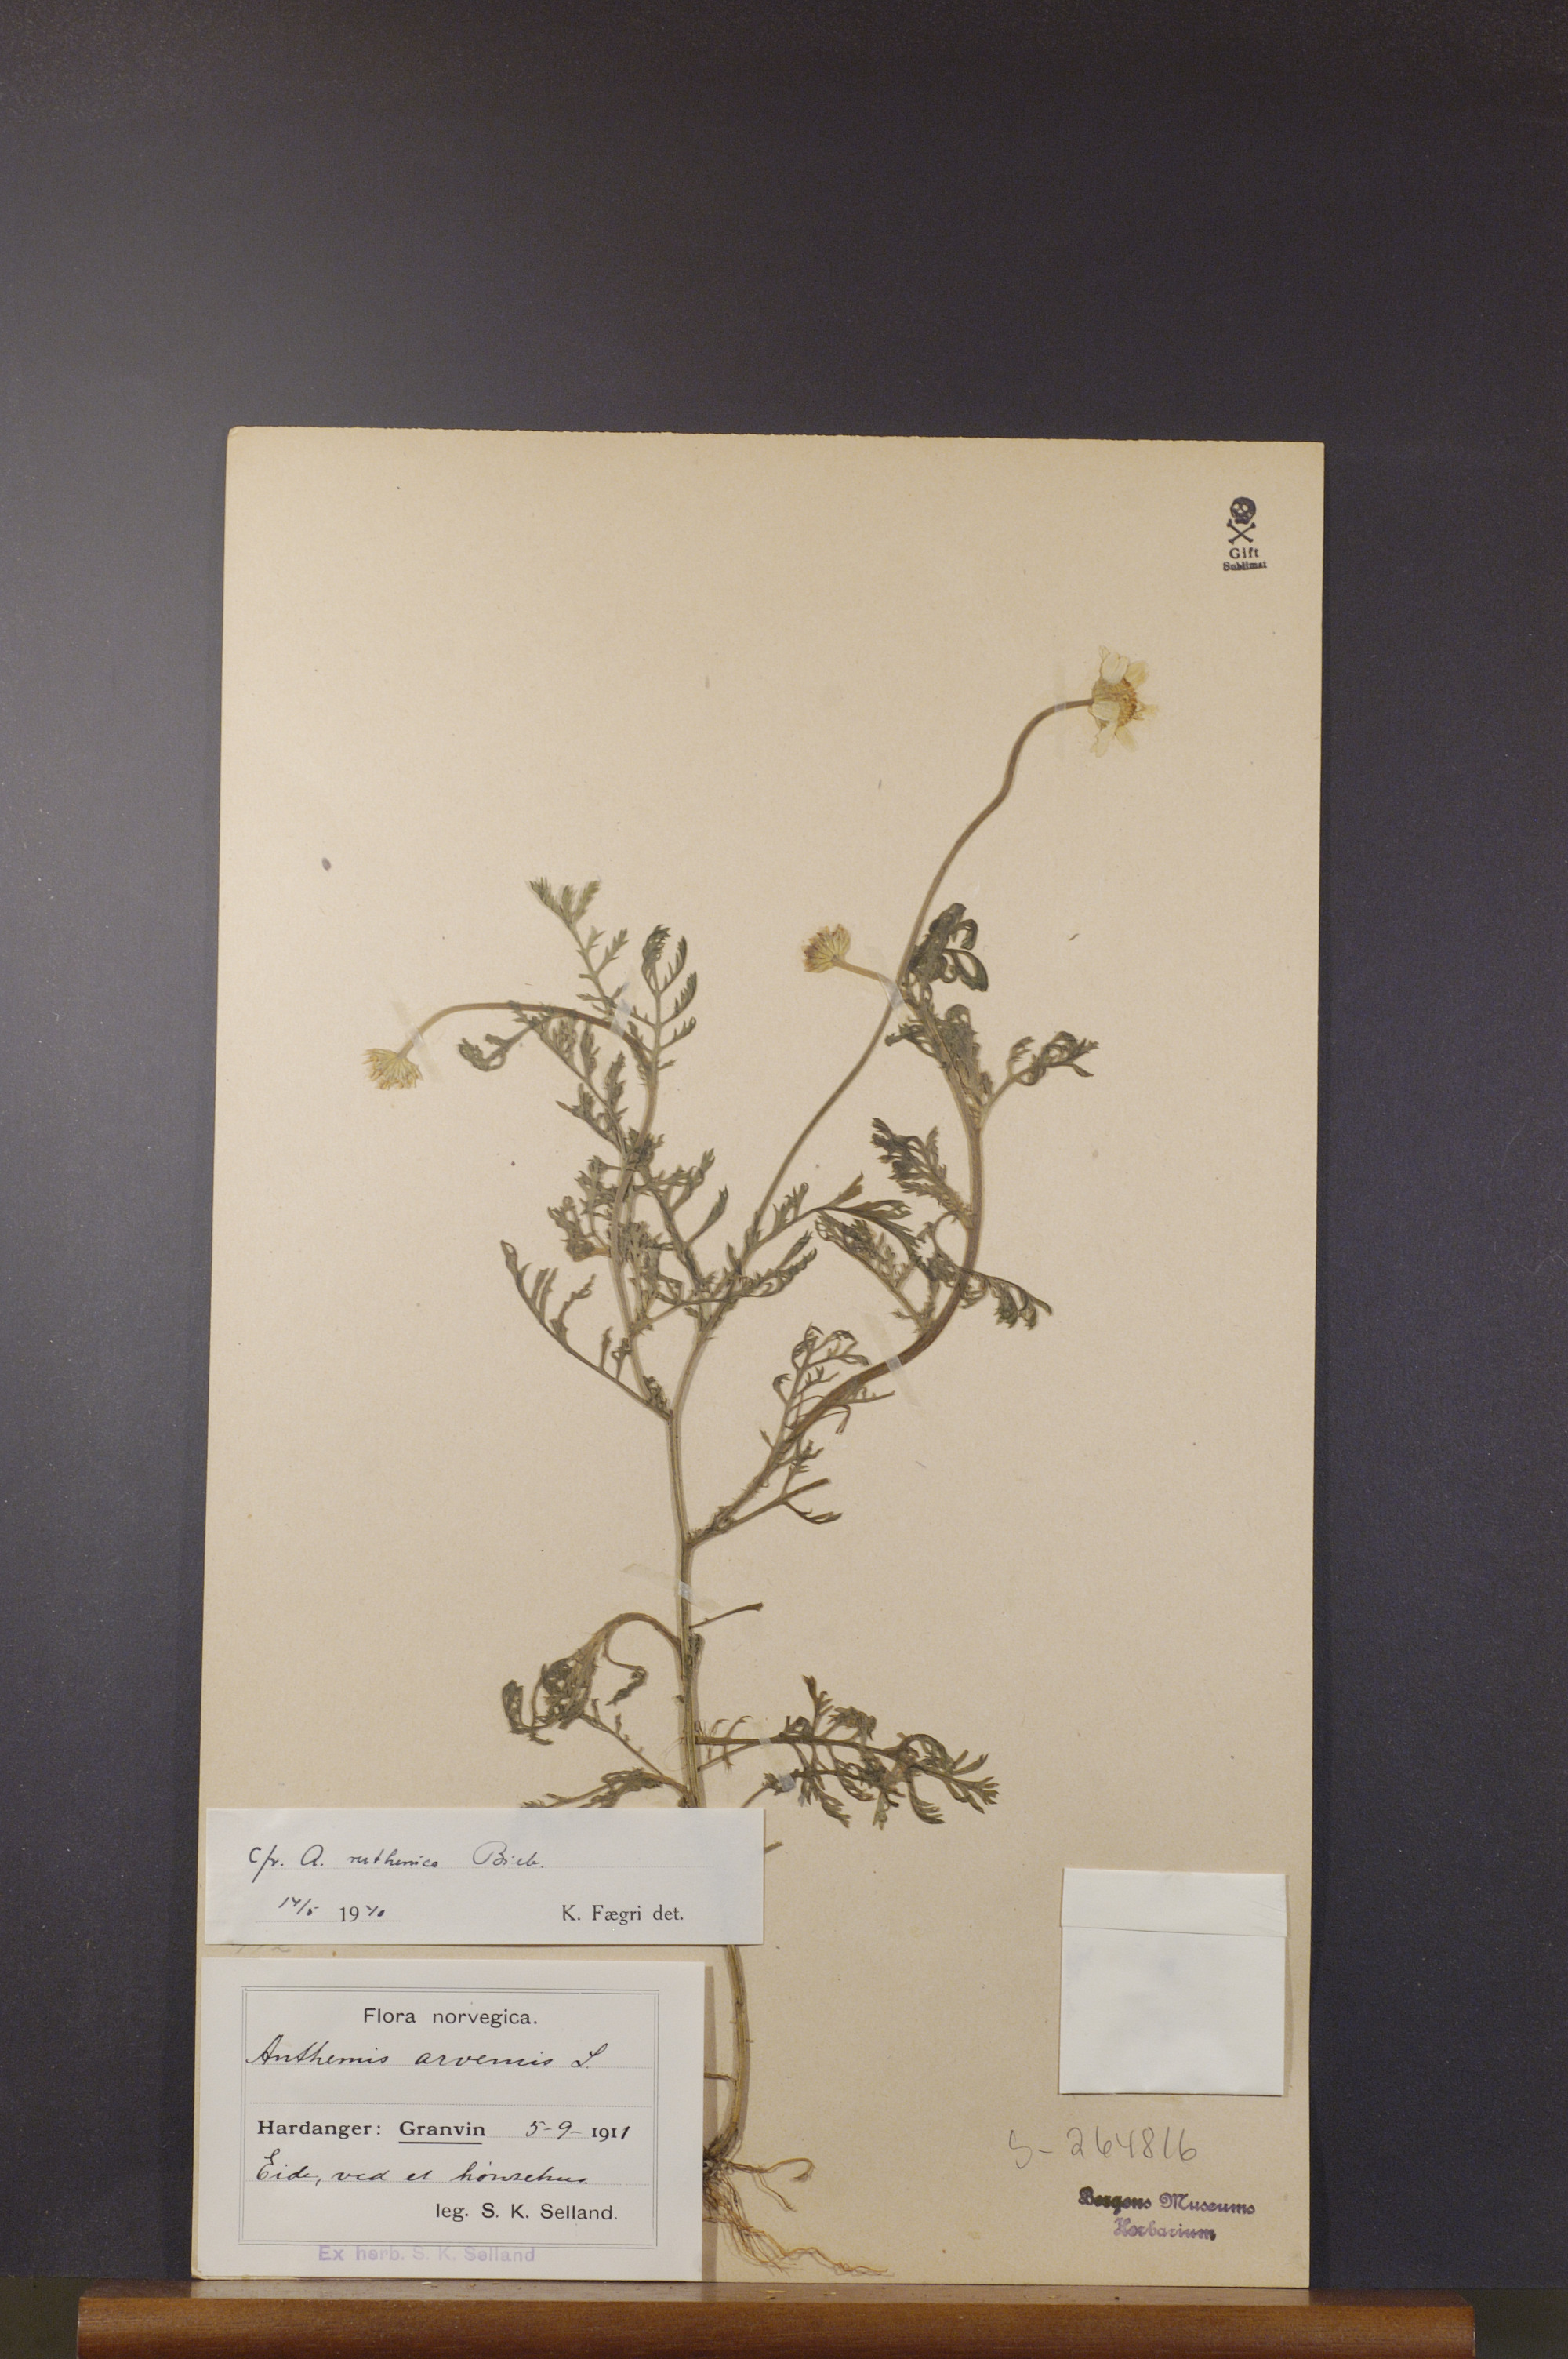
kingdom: Plantae
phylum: Tracheophyta
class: Magnoliopsida
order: Asterales
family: Asteraceae
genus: Anthemis
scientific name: Anthemis ruthenica
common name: Eastern chamomile
